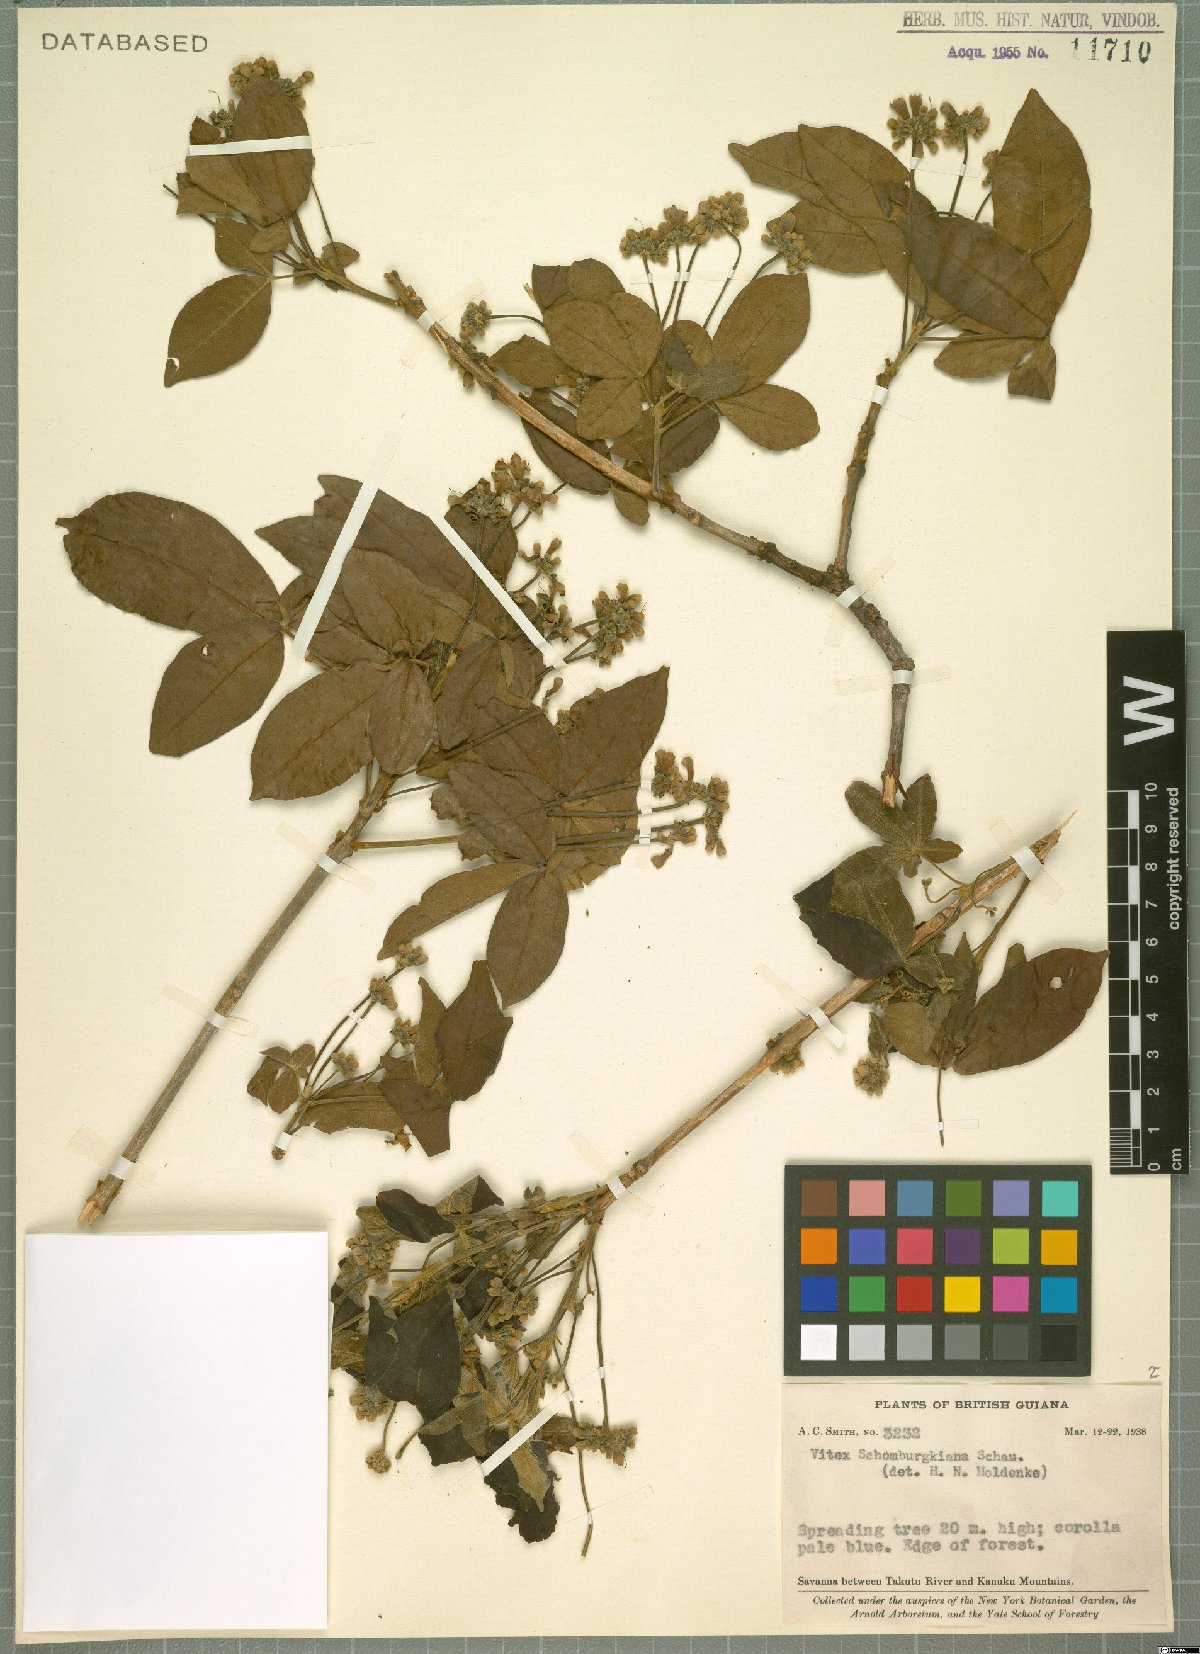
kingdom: Plantae
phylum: Tracheophyta
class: Magnoliopsida
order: Lamiales
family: Lamiaceae
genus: Vitex
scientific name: Vitex schomburgkiana
